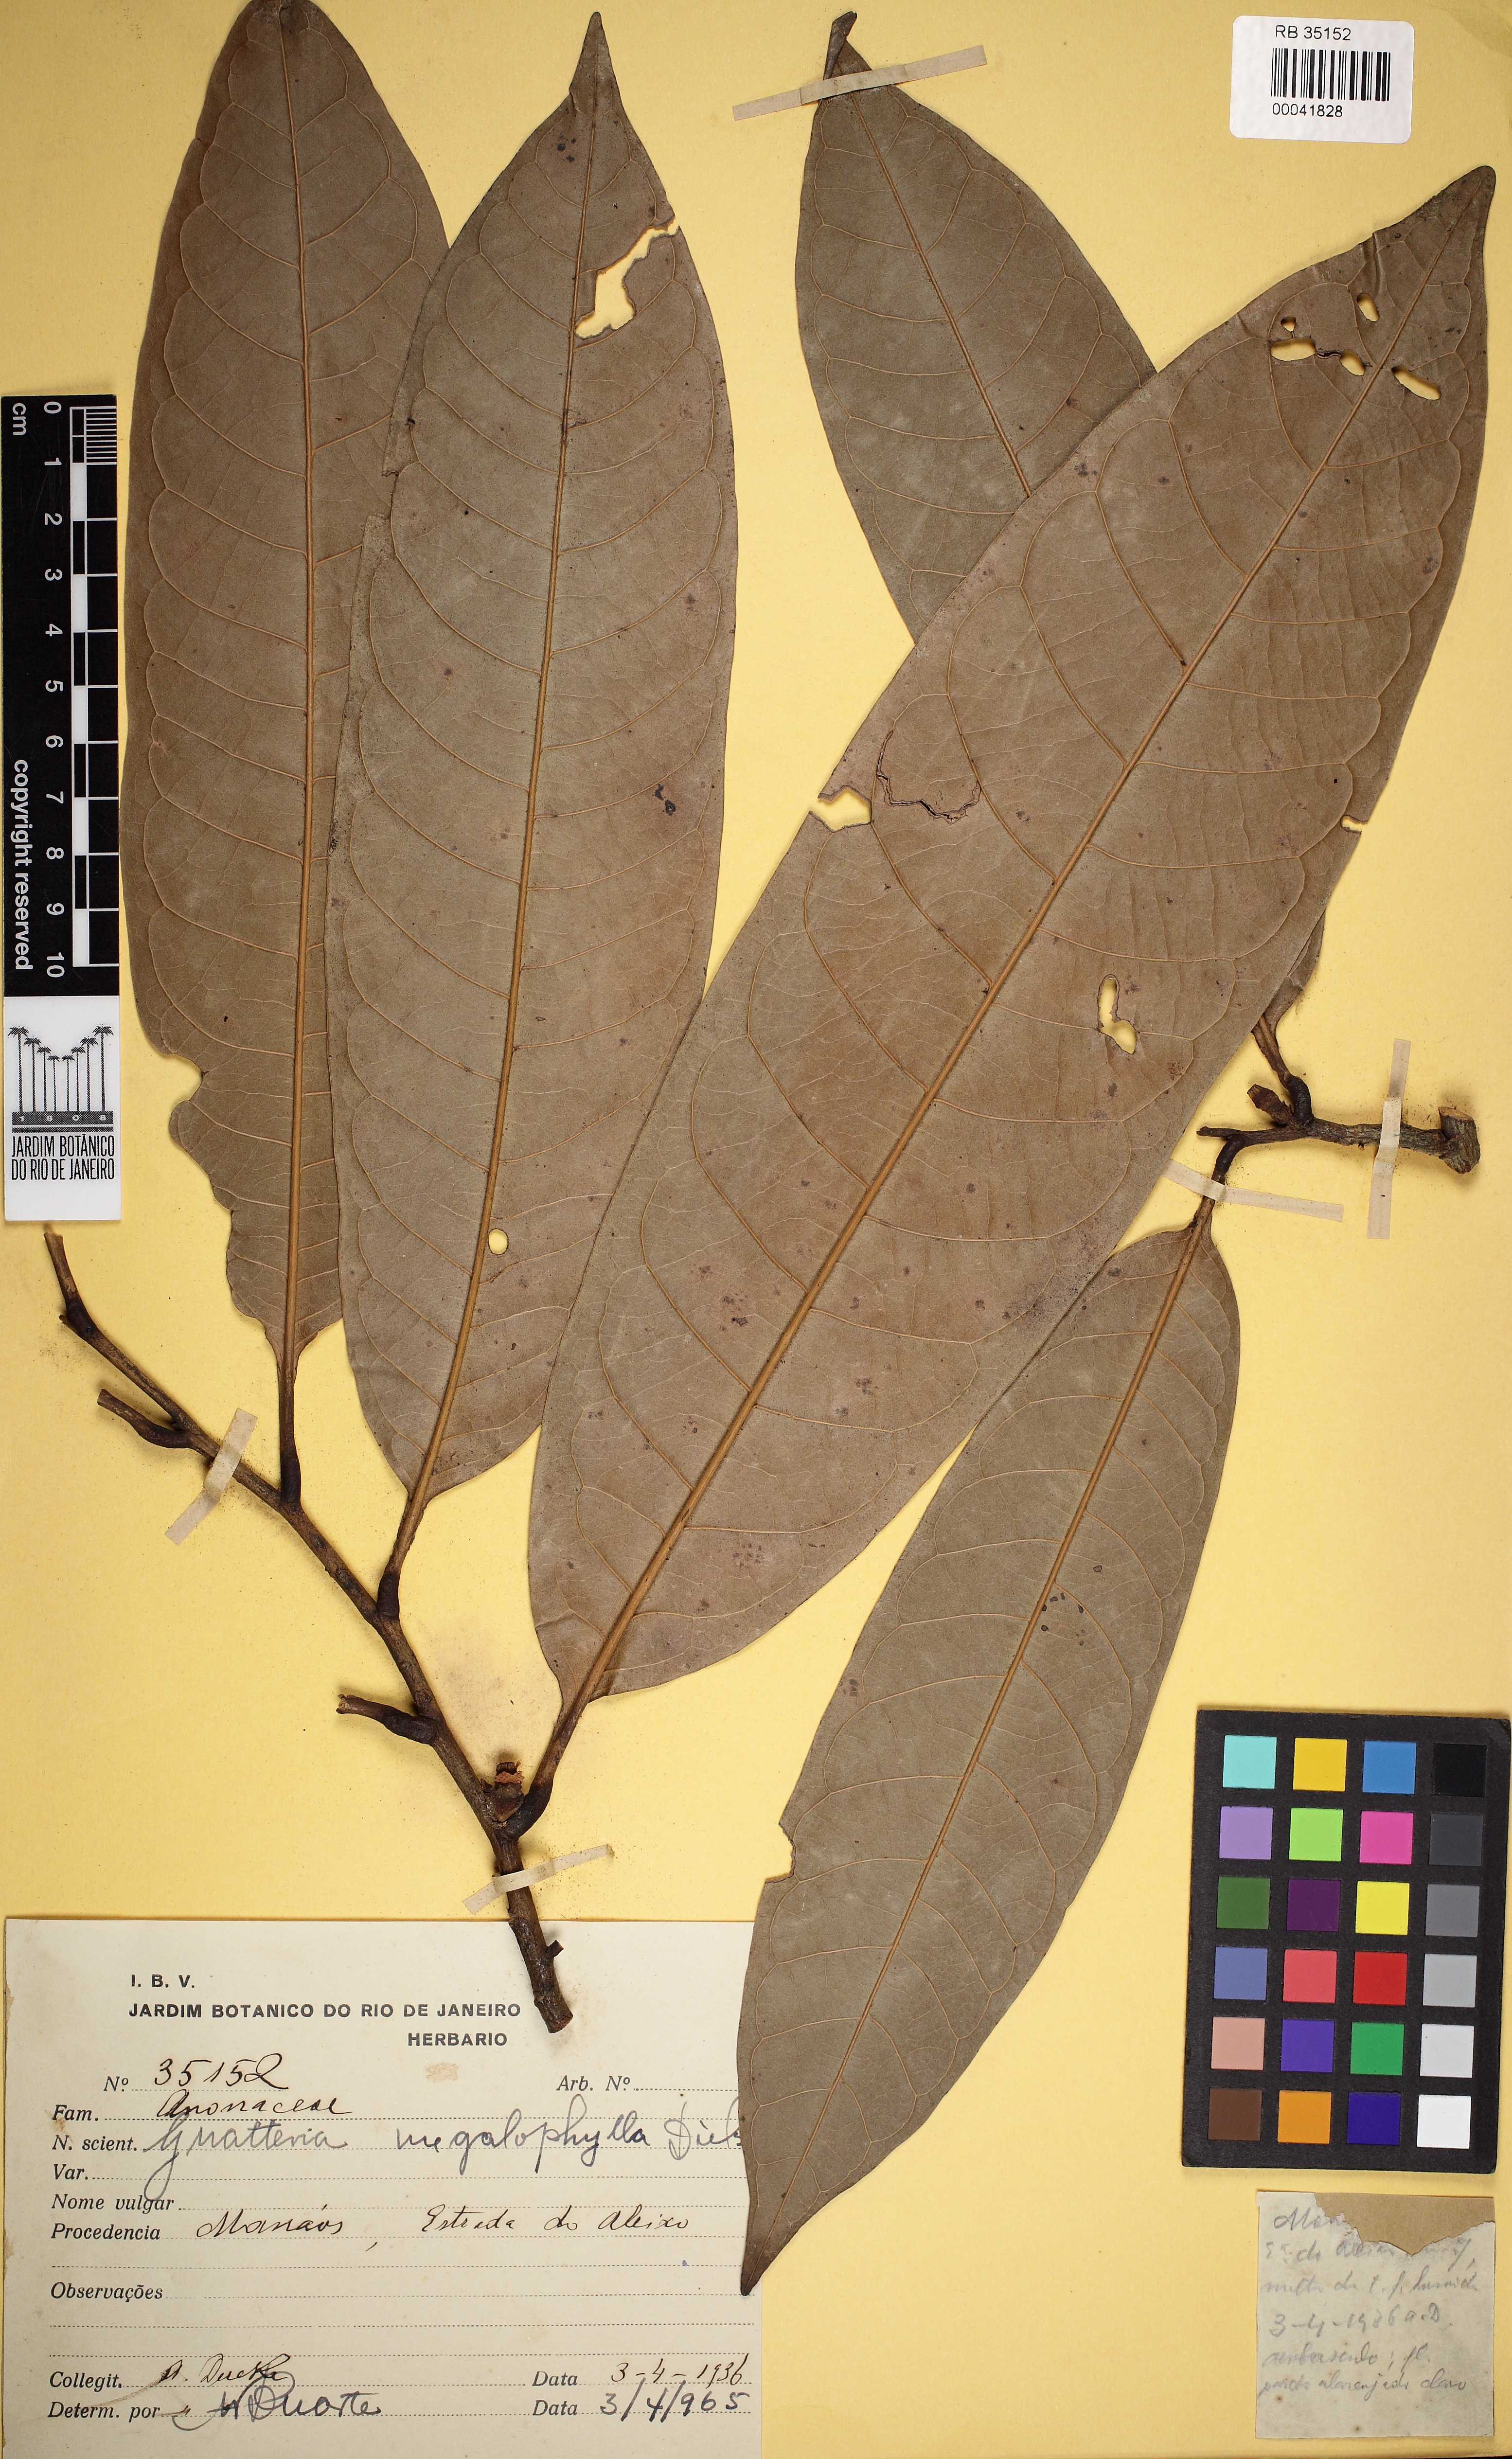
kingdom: Plantae
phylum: Tracheophyta
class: Magnoliopsida
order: Magnoliales
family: Annonaceae
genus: Guatteria
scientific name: Guatteria megalophylla
